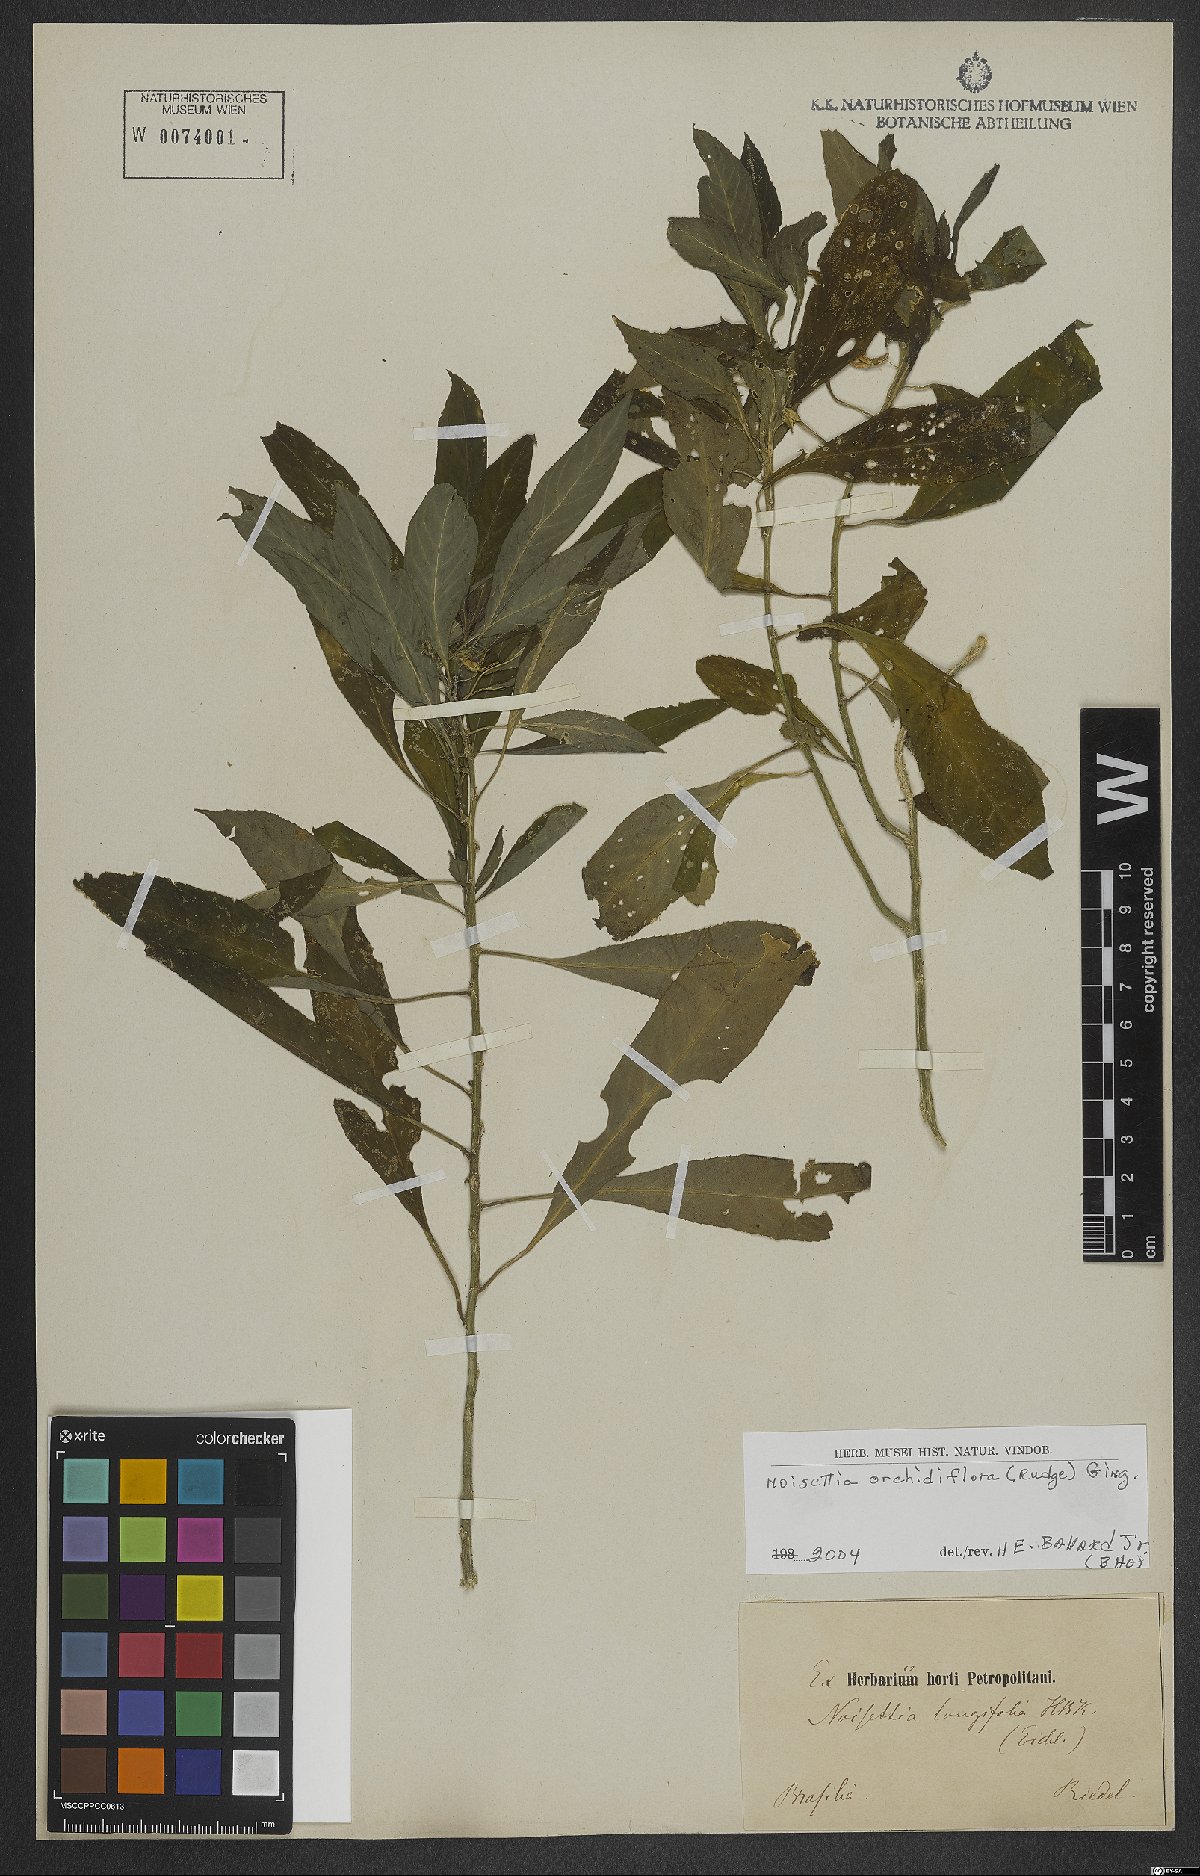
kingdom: Plantae
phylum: Tracheophyta
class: Magnoliopsida
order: Malpighiales
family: Violaceae
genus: Noisettia
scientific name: Noisettia orchidiflora
